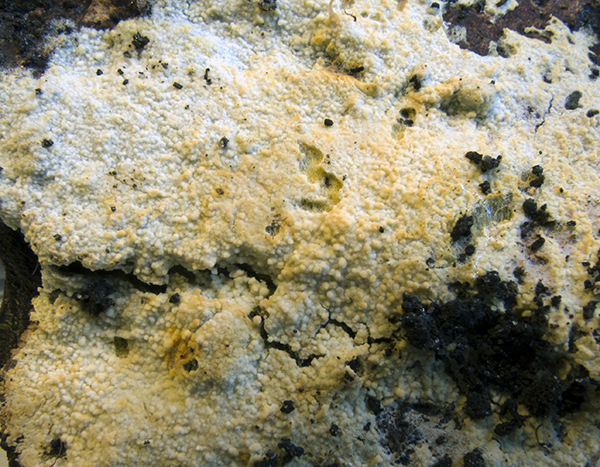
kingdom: Fungi
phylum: Basidiomycota
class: Agaricomycetes
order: Agaricales
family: Stephanosporaceae
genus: Lindtneria
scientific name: Lindtneria leucobryophila
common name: bleg citrushinde
